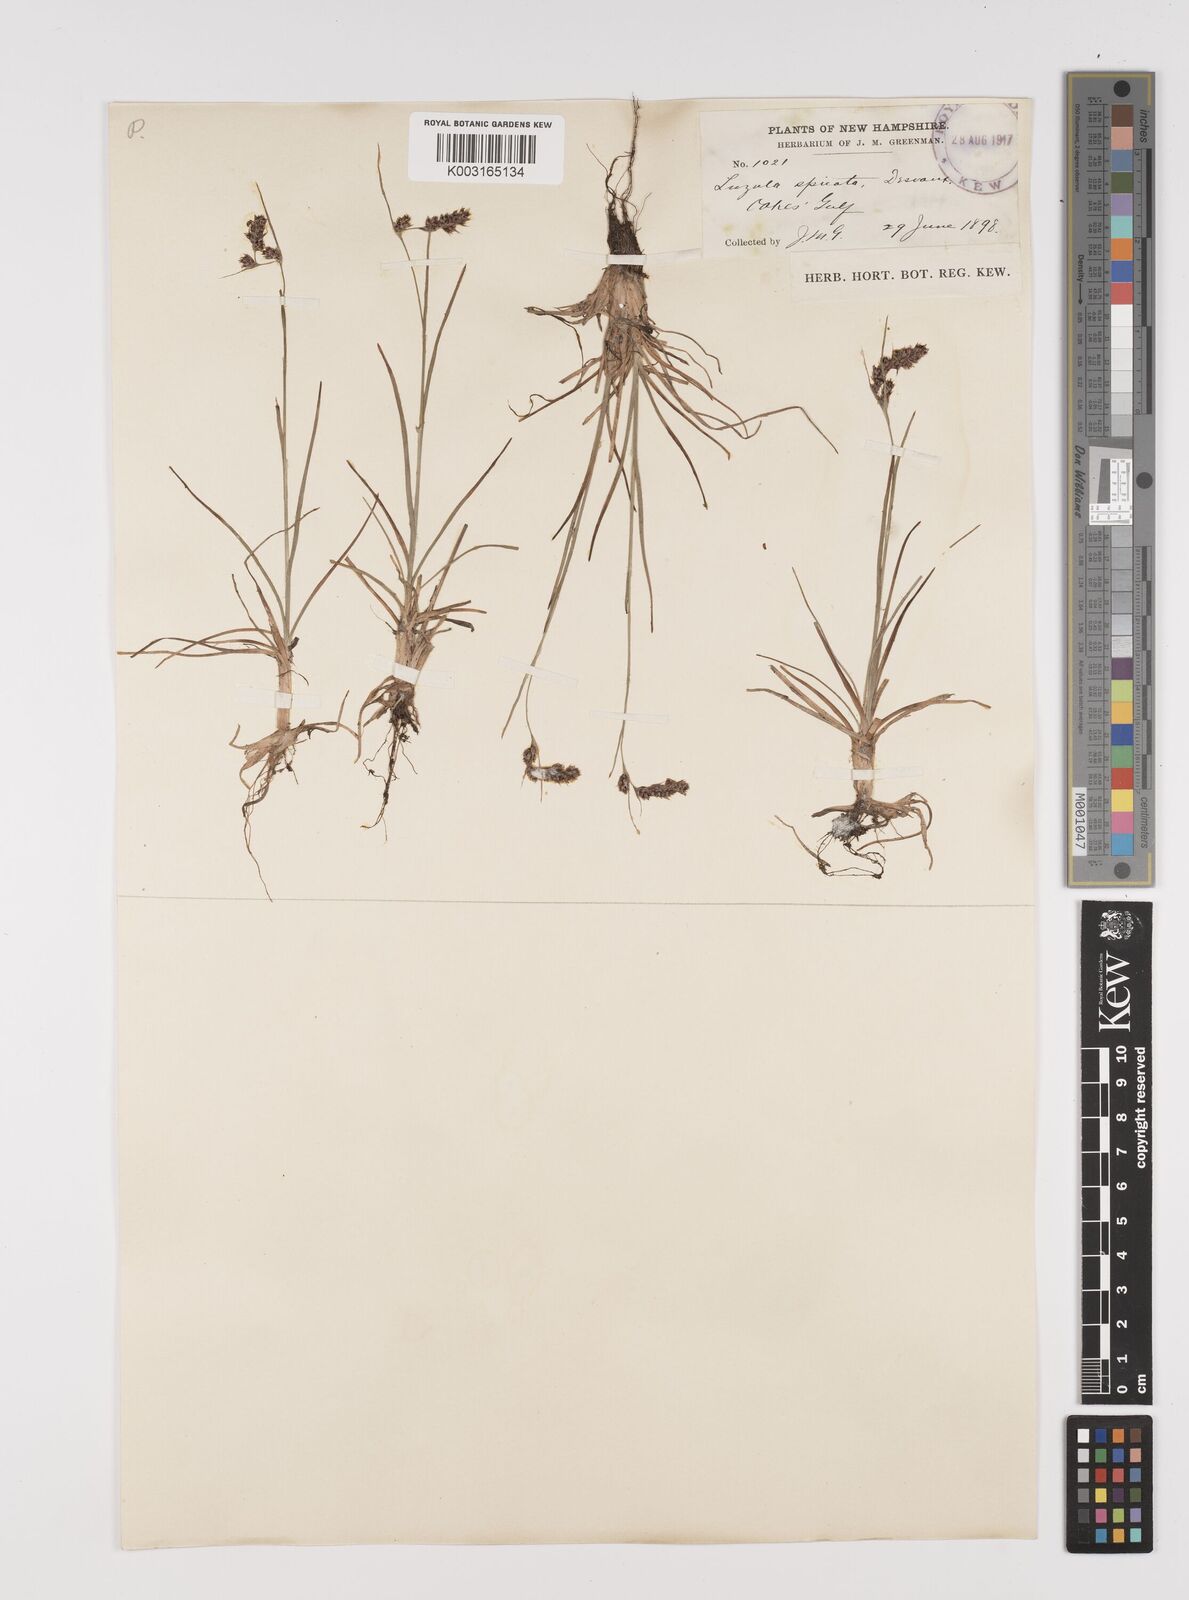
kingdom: Plantae
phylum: Tracheophyta
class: Liliopsida
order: Poales
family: Juncaceae
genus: Luzula
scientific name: Luzula spicata
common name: Spiked wood-rush
